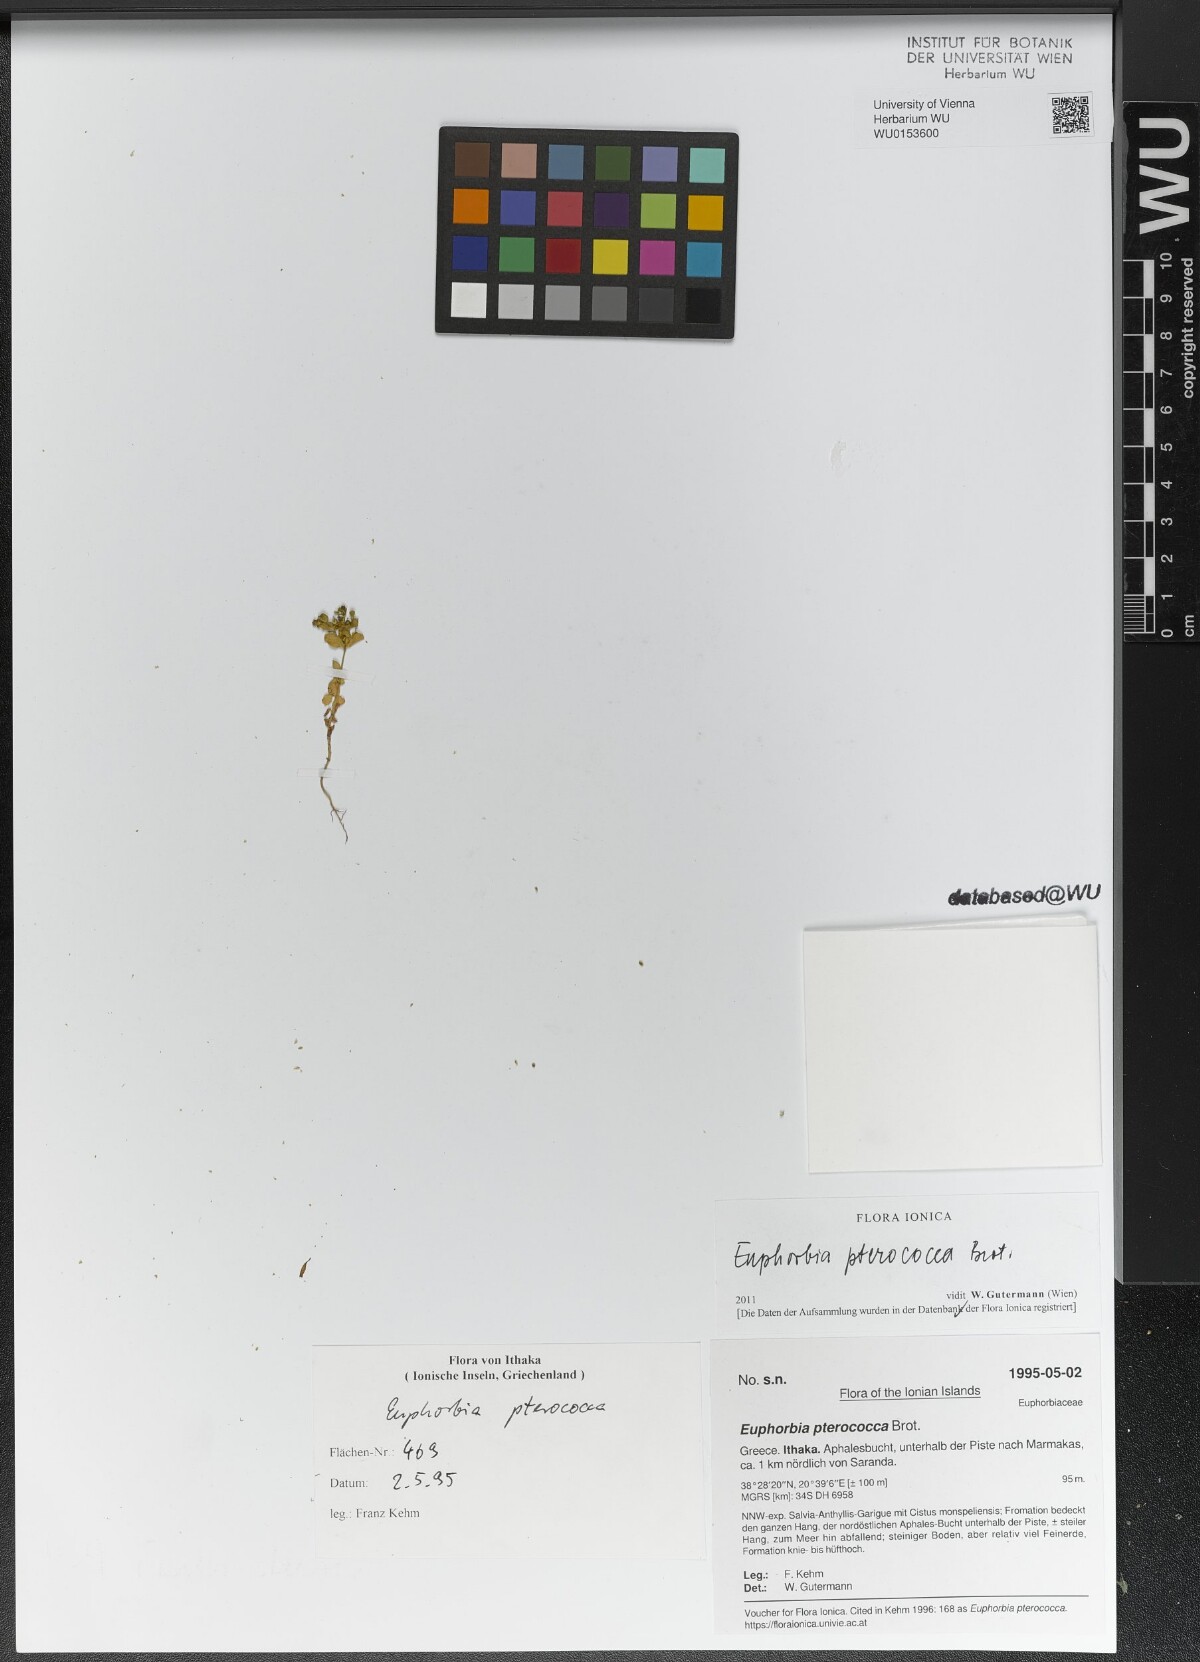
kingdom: Plantae
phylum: Tracheophyta
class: Magnoliopsida
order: Malpighiales
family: Euphorbiaceae
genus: Euphorbia
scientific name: Euphorbia pterococca
